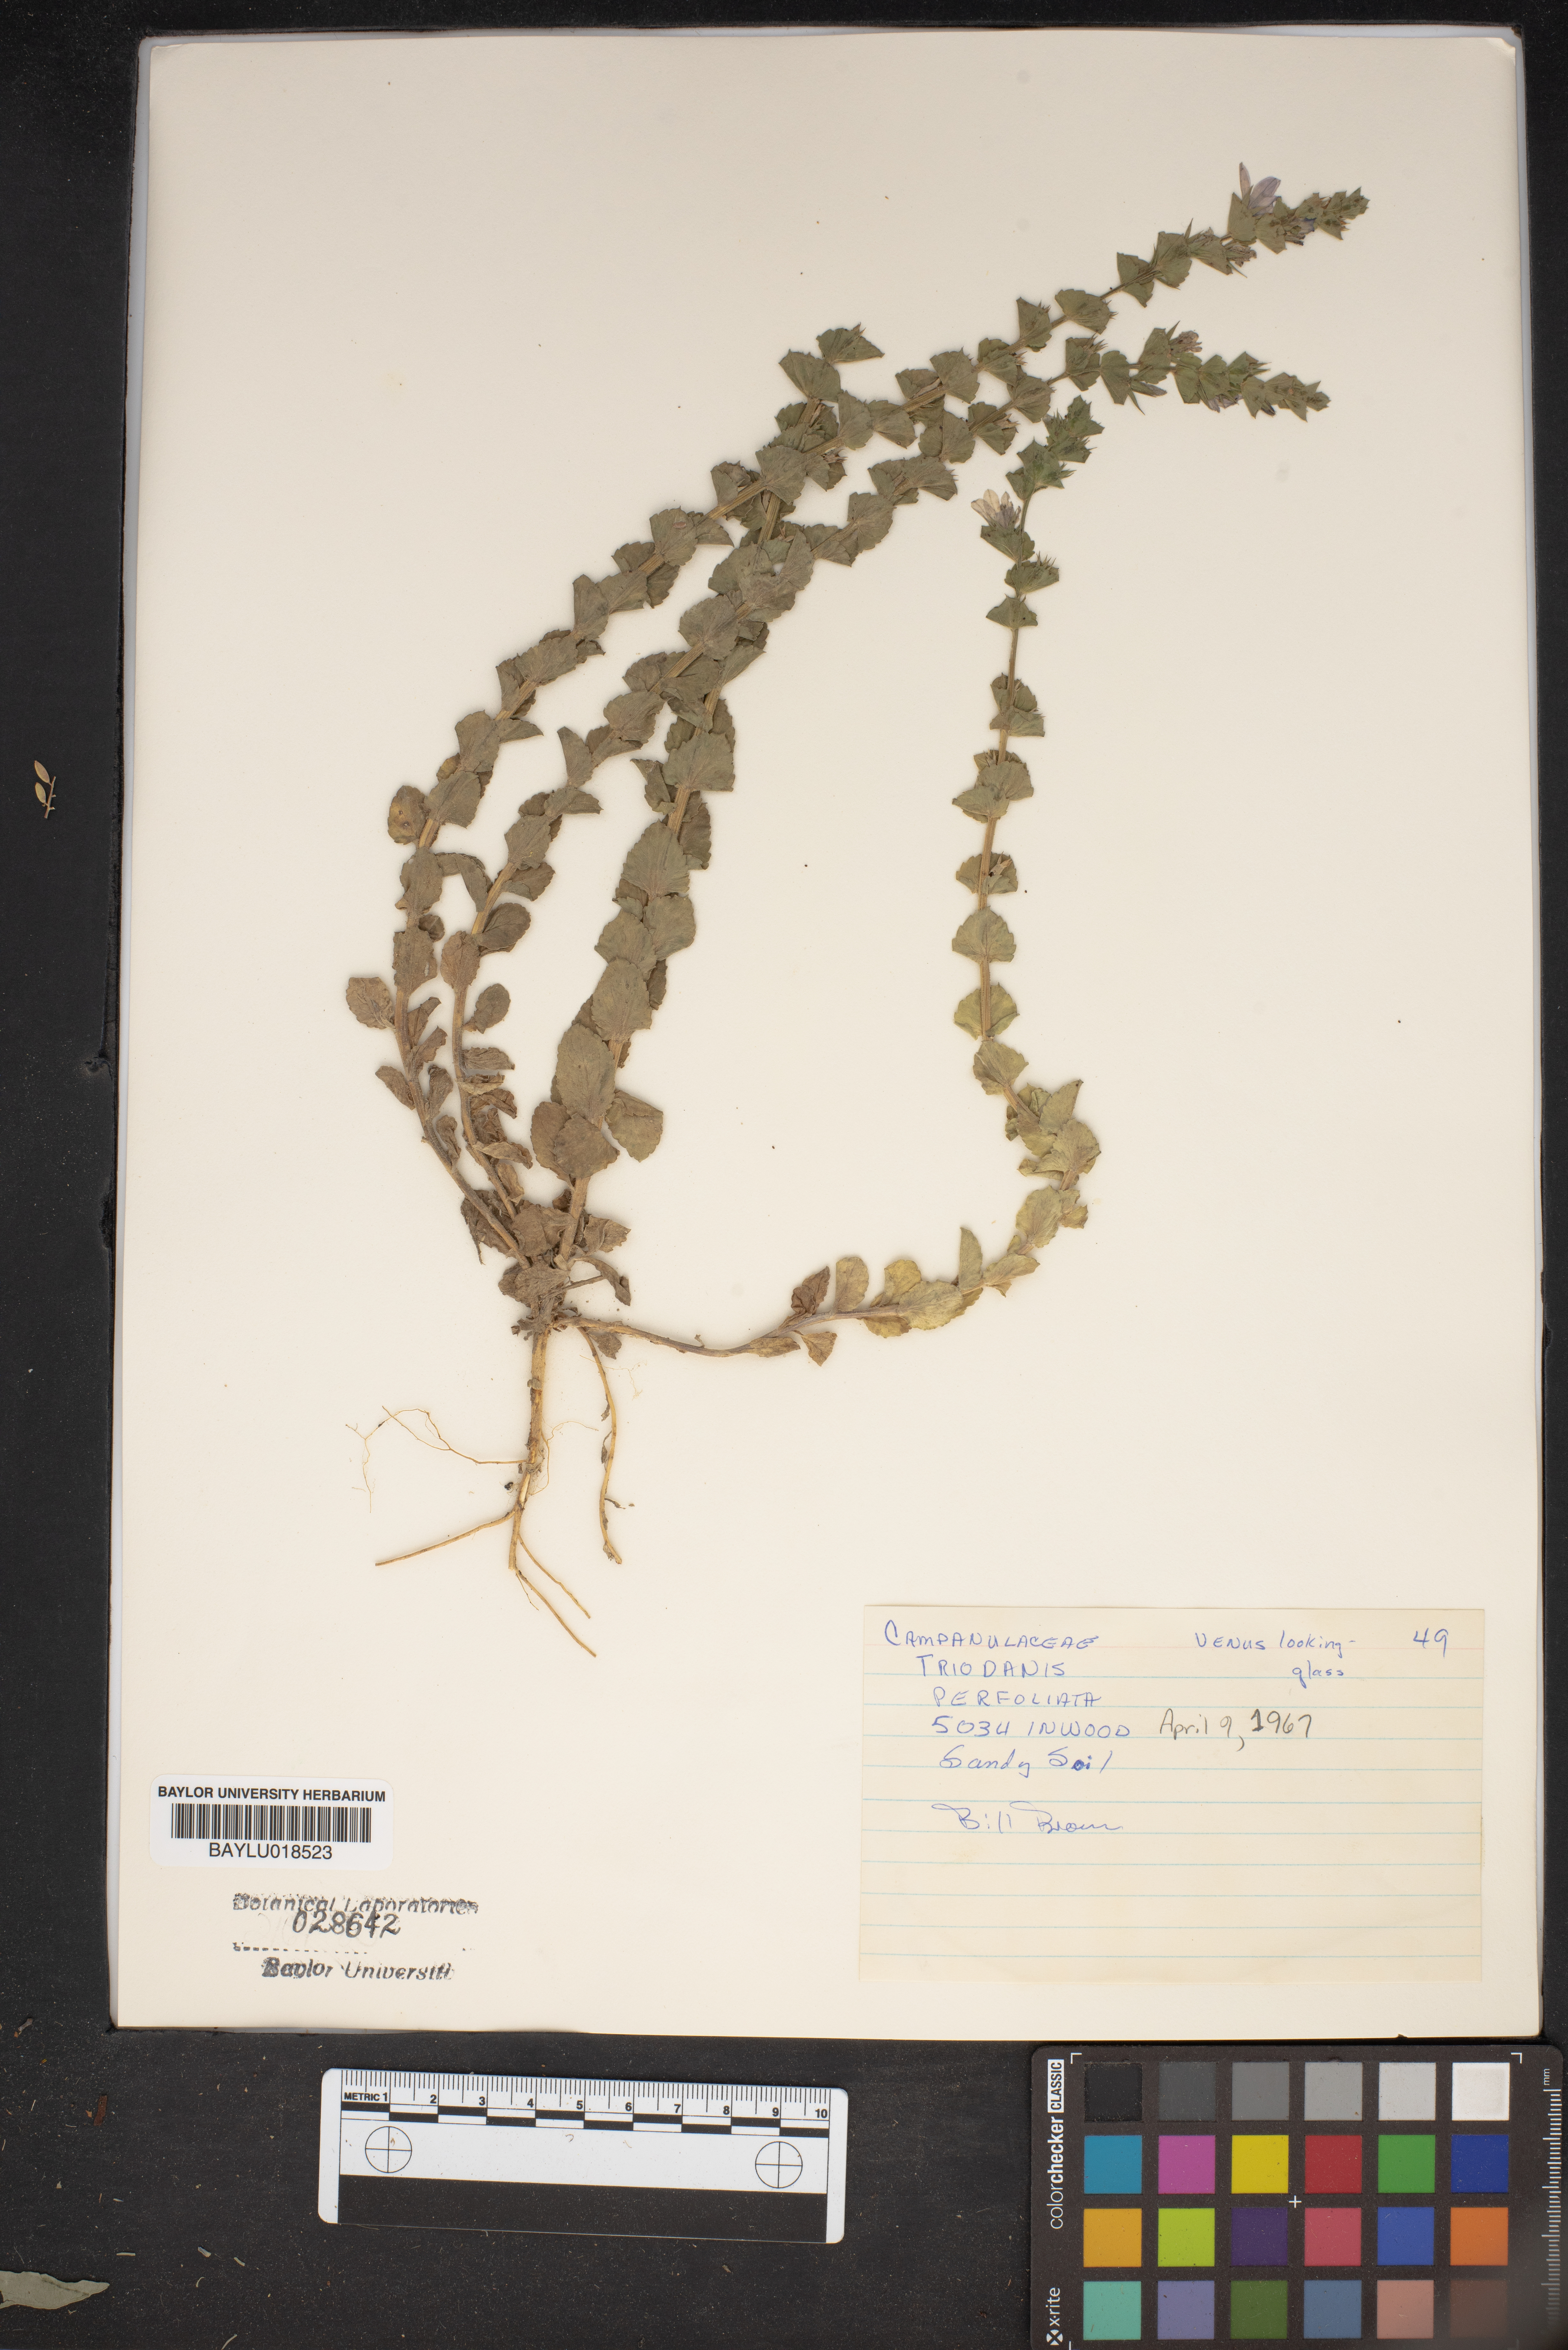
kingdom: Plantae
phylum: Tracheophyta
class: Magnoliopsida
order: Asterales
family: Campanulaceae
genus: Triodanis
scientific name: Triodanis perfoliata
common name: Clasping venus' looking-glass
